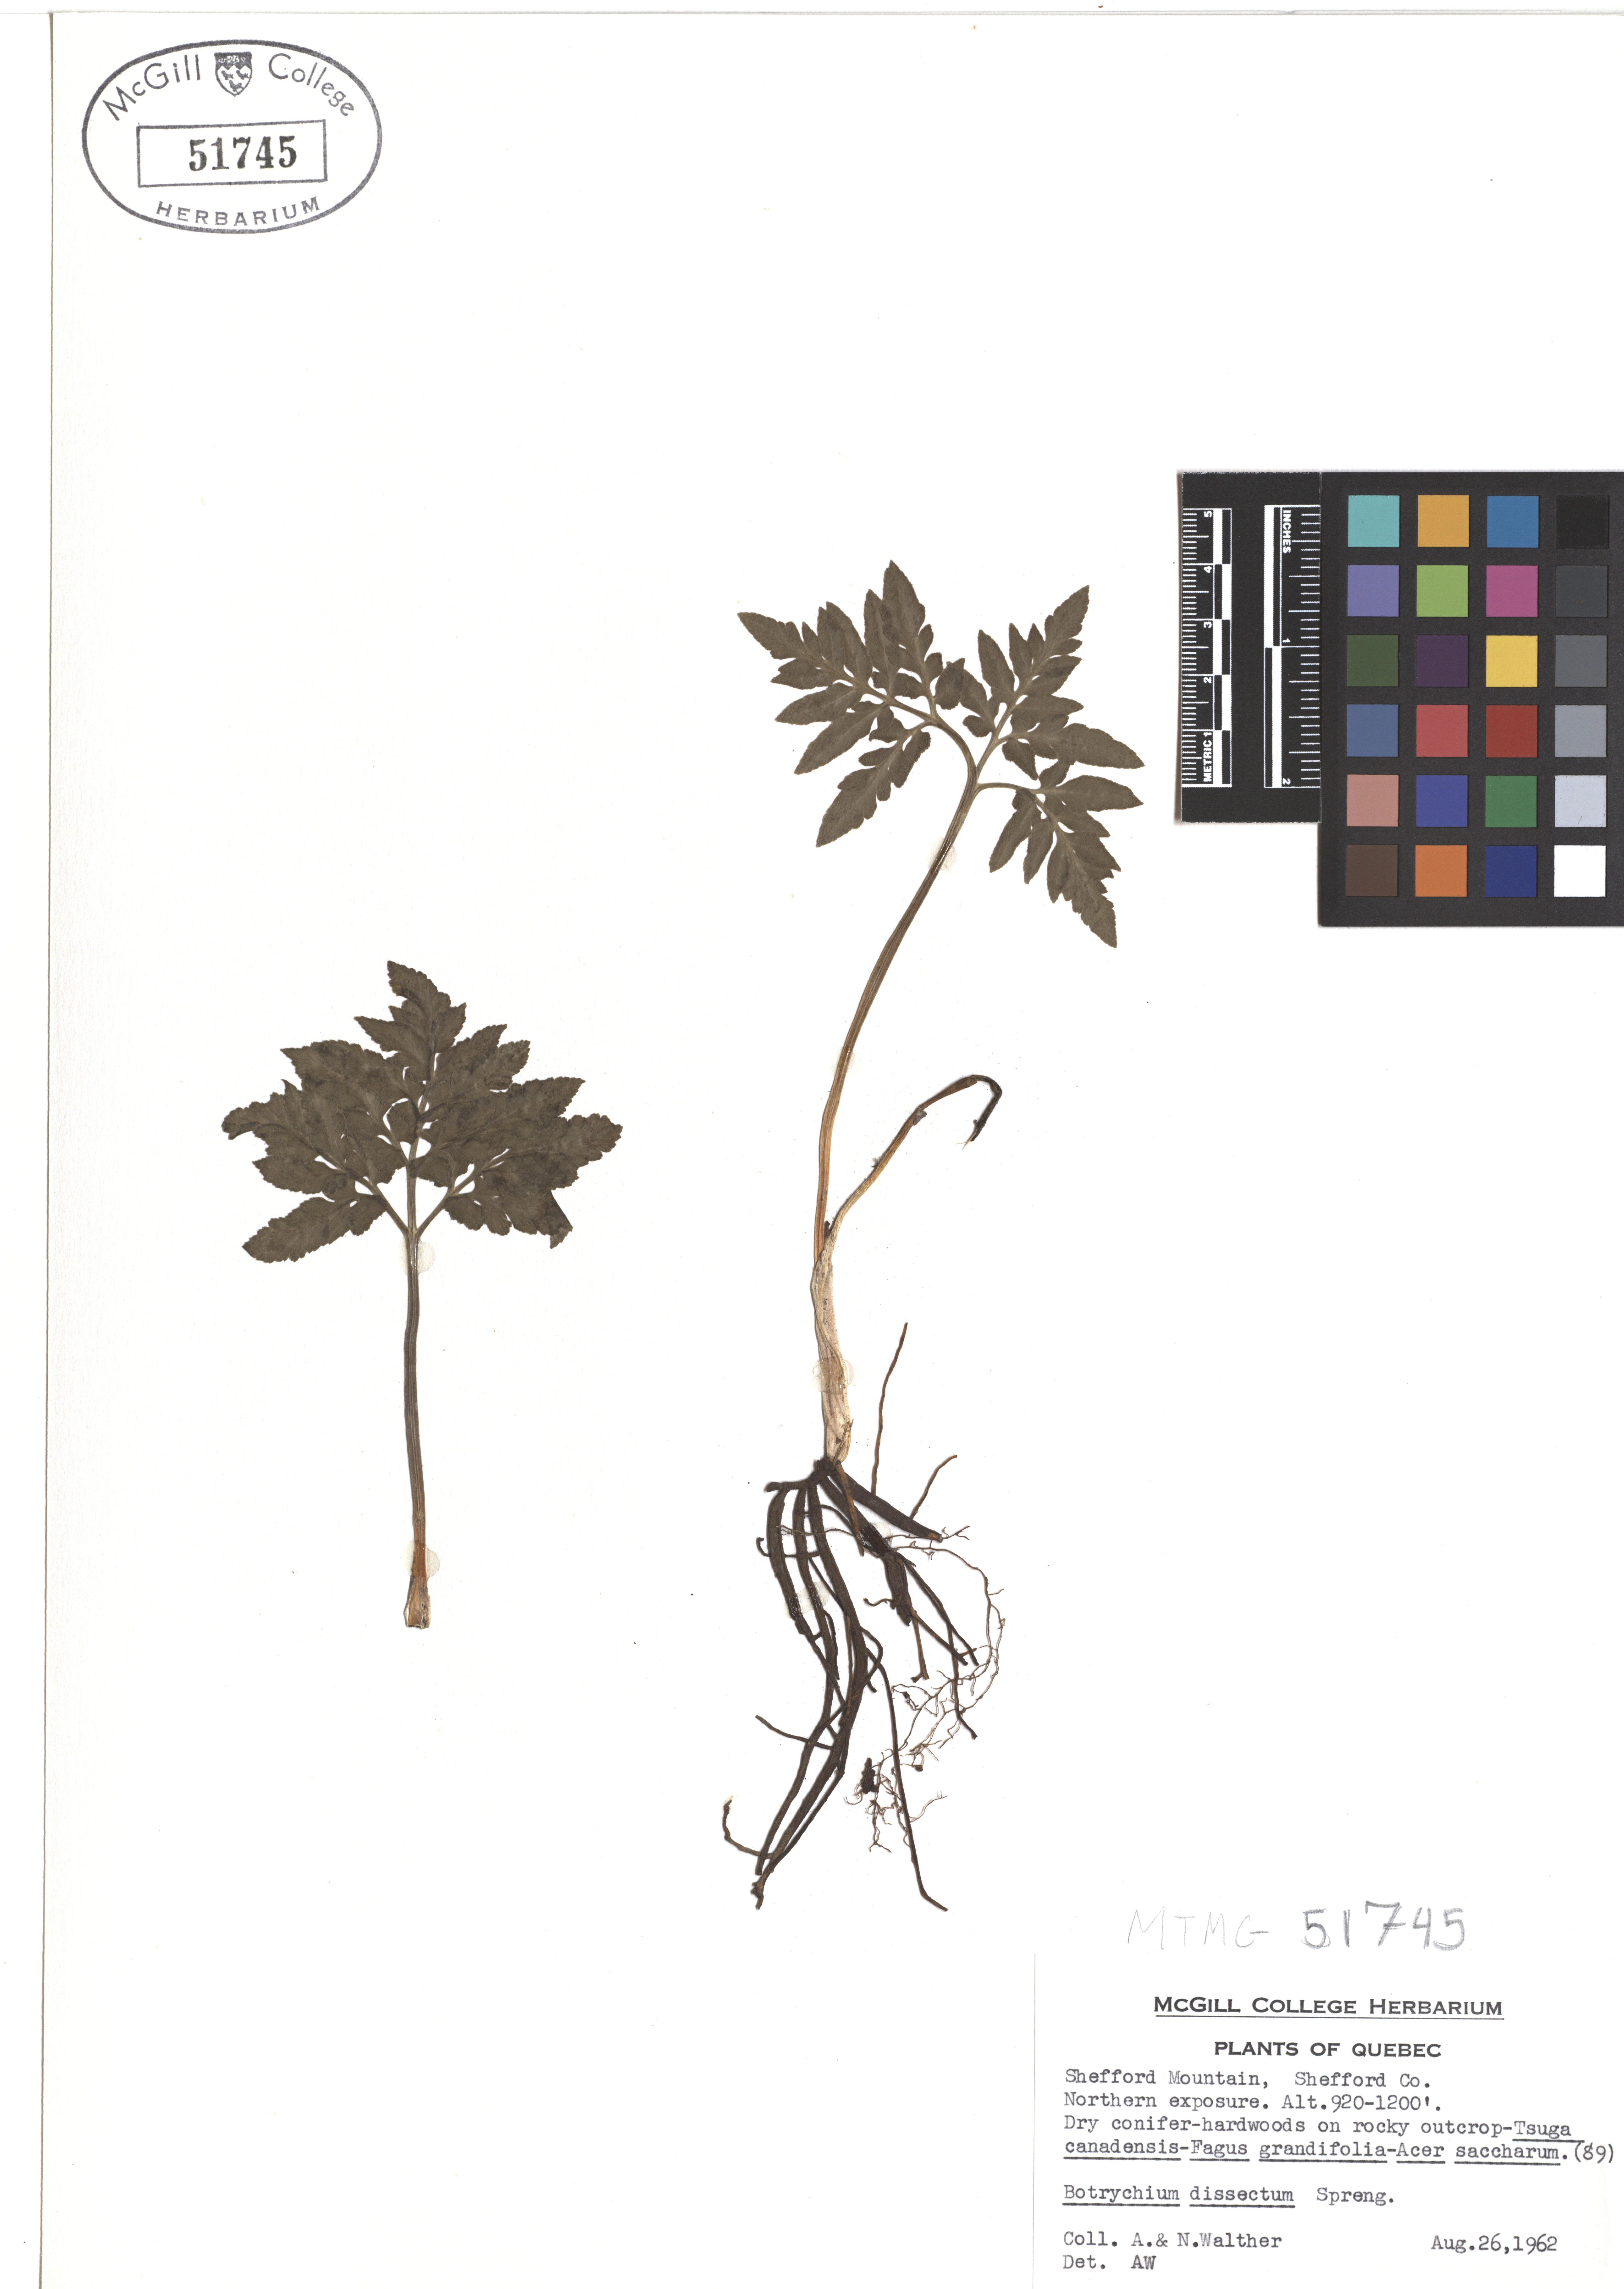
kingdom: Plantae
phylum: Tracheophyta
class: Polypodiopsida
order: Ophioglossales
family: Ophioglossaceae
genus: Sceptridium
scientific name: Sceptridium dissectum
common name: Cut-leaved grapefern
